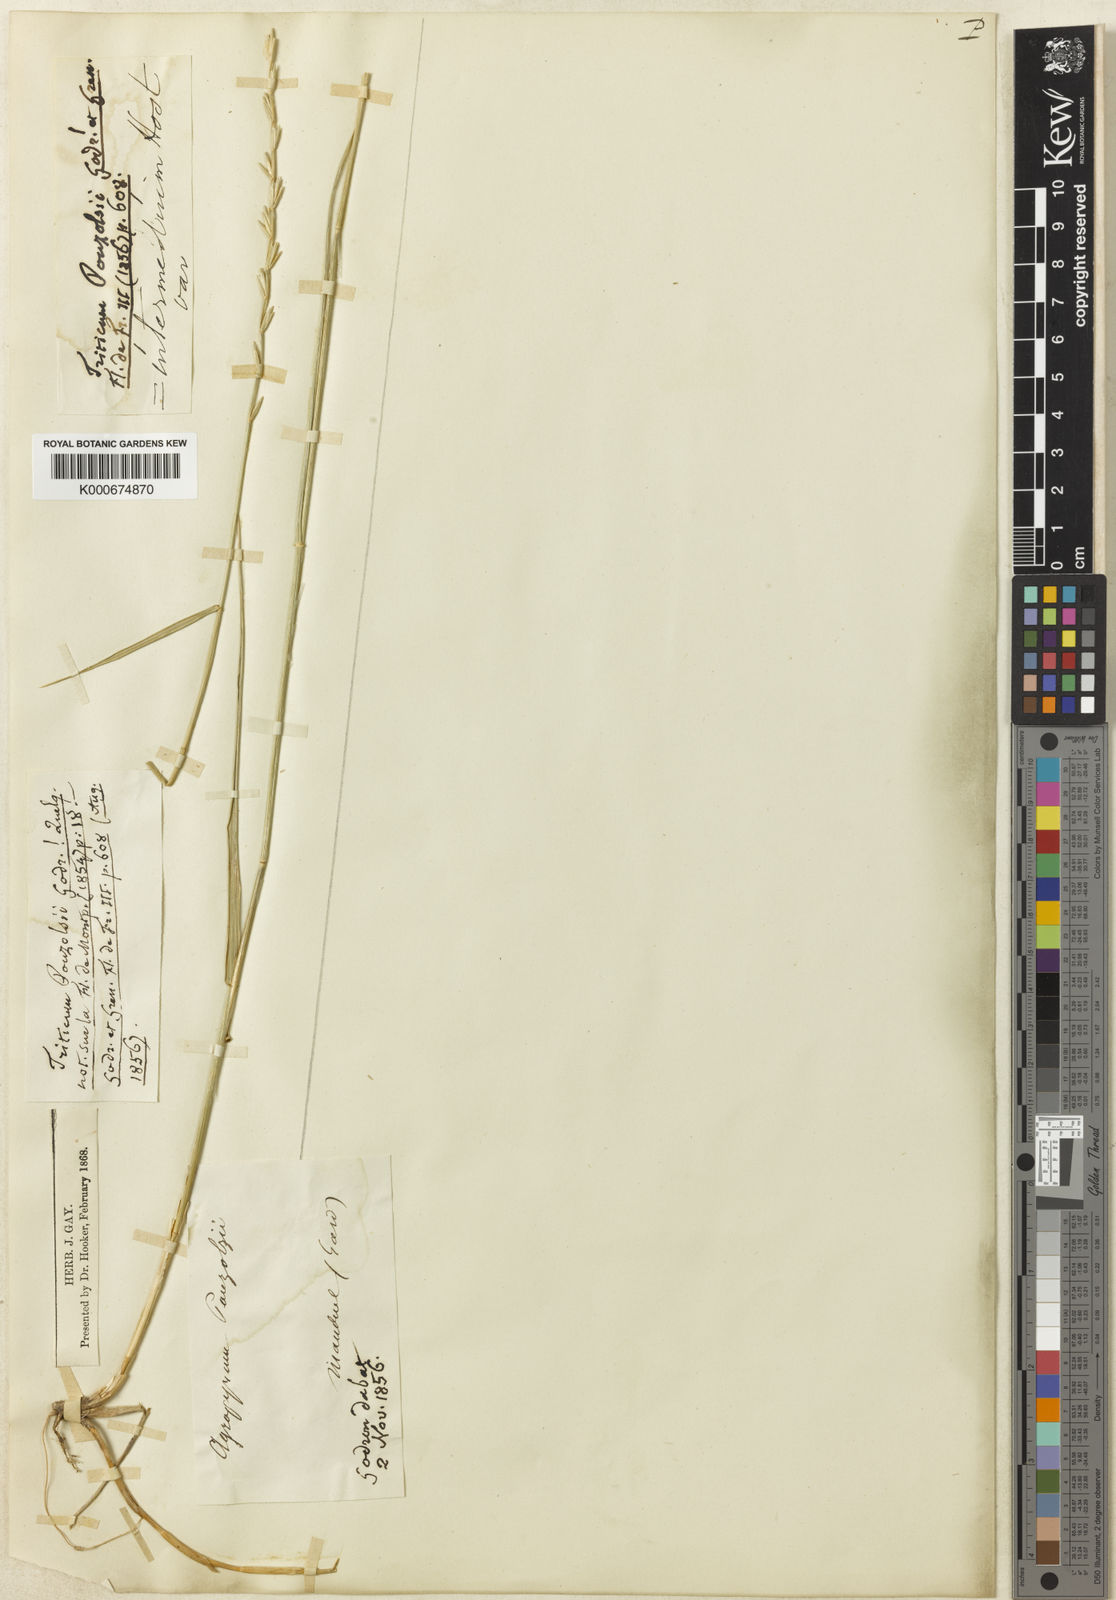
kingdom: Plantae
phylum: Tracheophyta
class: Liliopsida
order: Poales
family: Poaceae
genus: Thinopyrum
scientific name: Thinopyrum intermedium
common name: Intermediate wheatgrass
